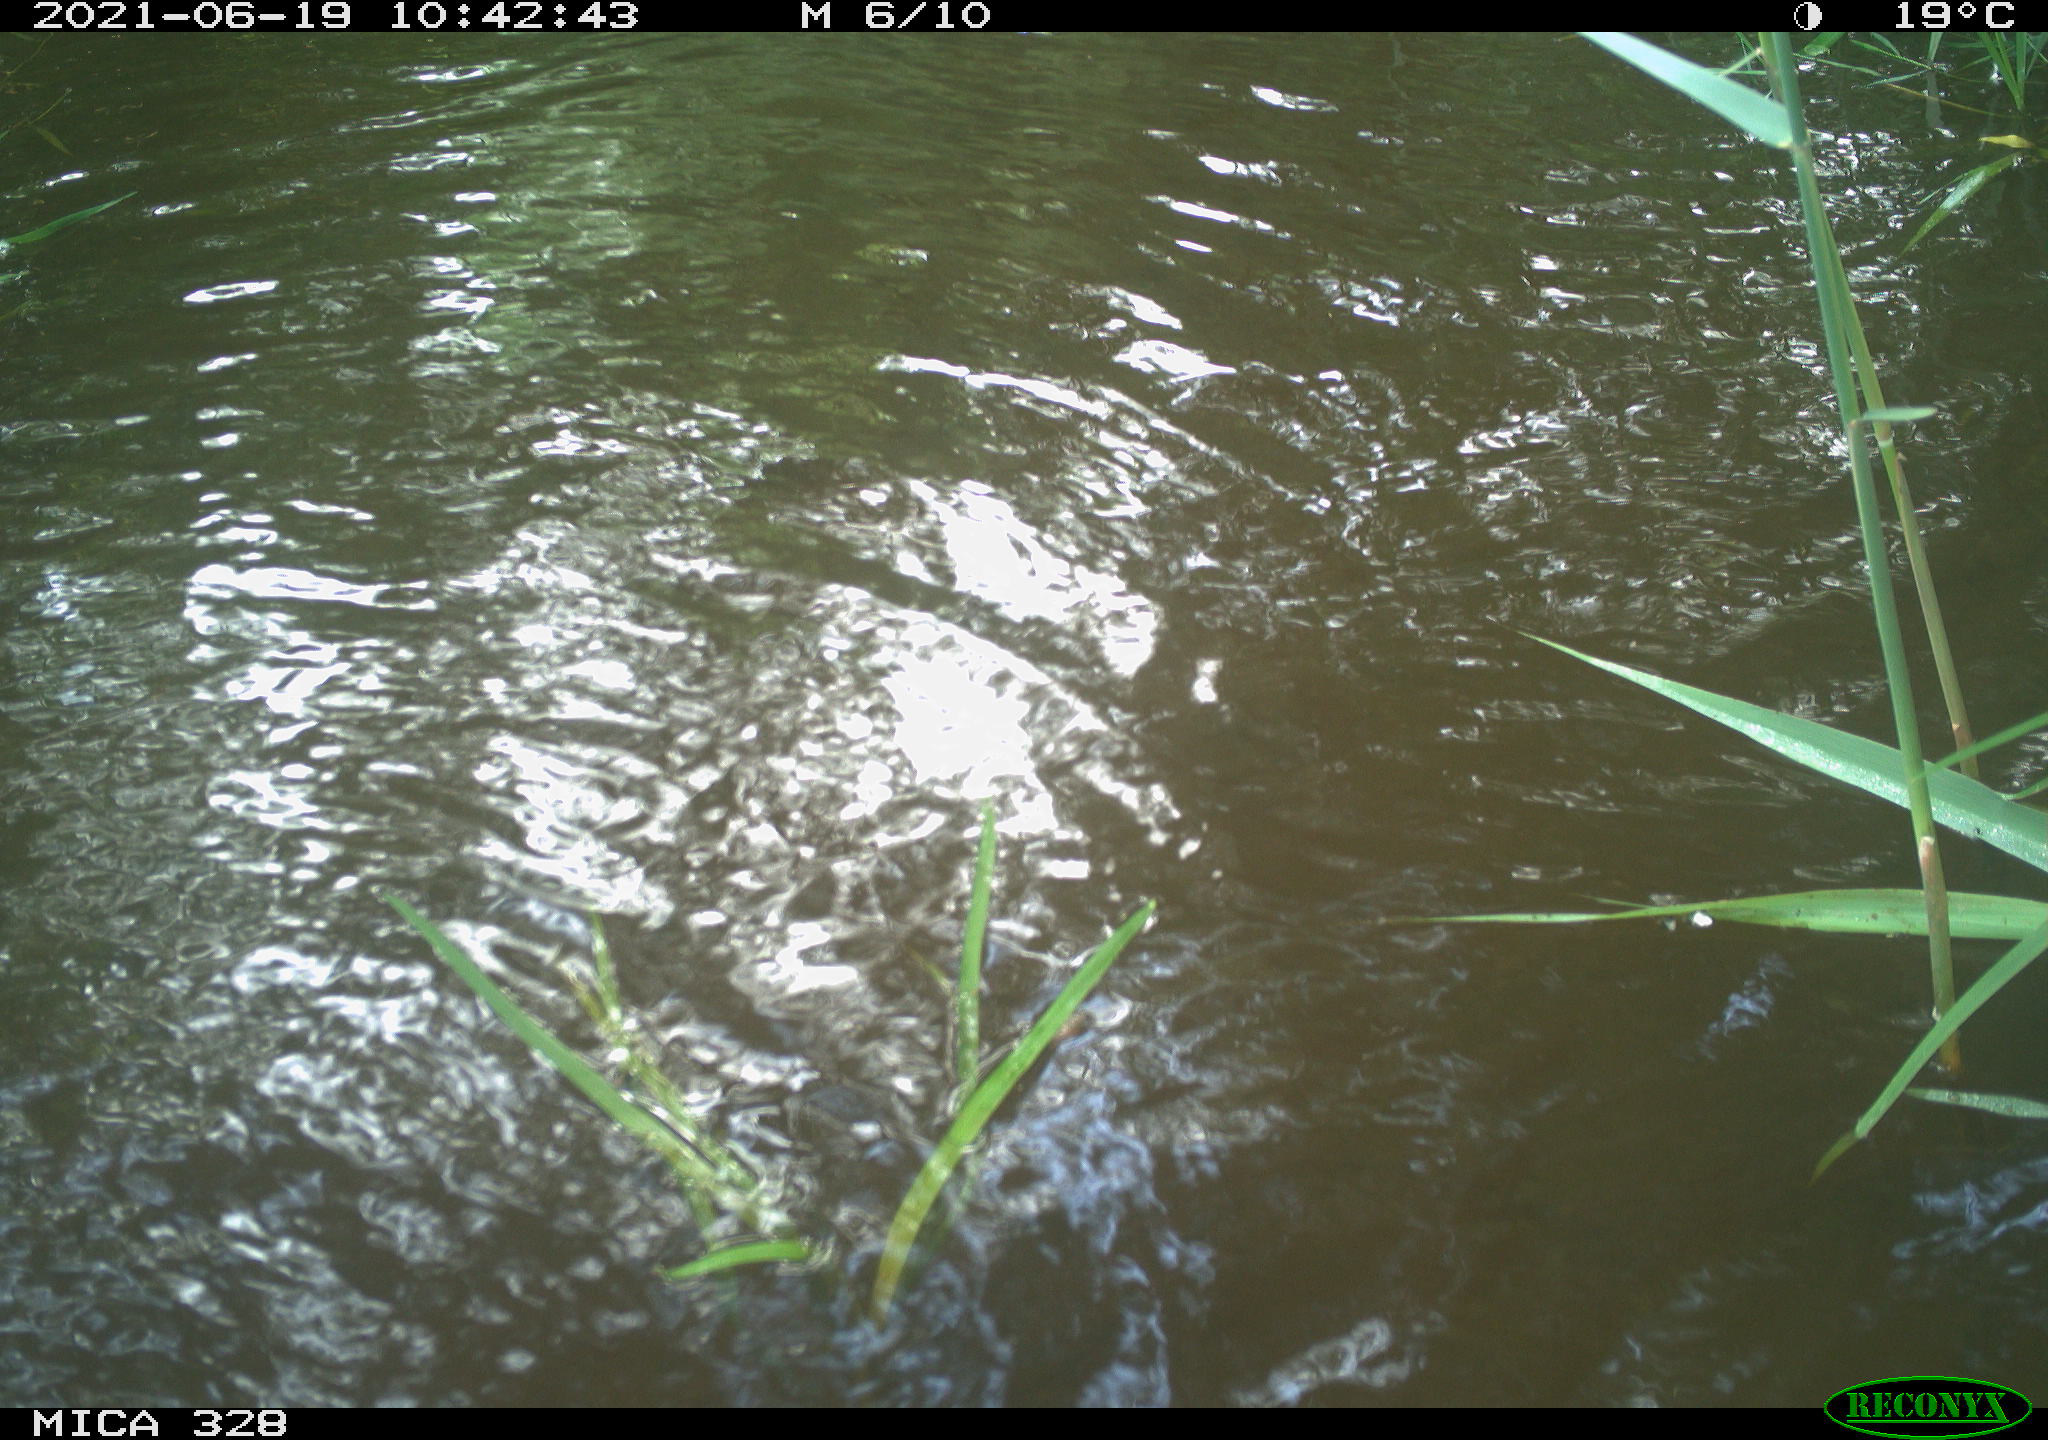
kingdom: Animalia
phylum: Chordata
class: Mammalia
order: Rodentia
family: Cricetidae
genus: Ondatra
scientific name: Ondatra zibethicus
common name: Muskrat
